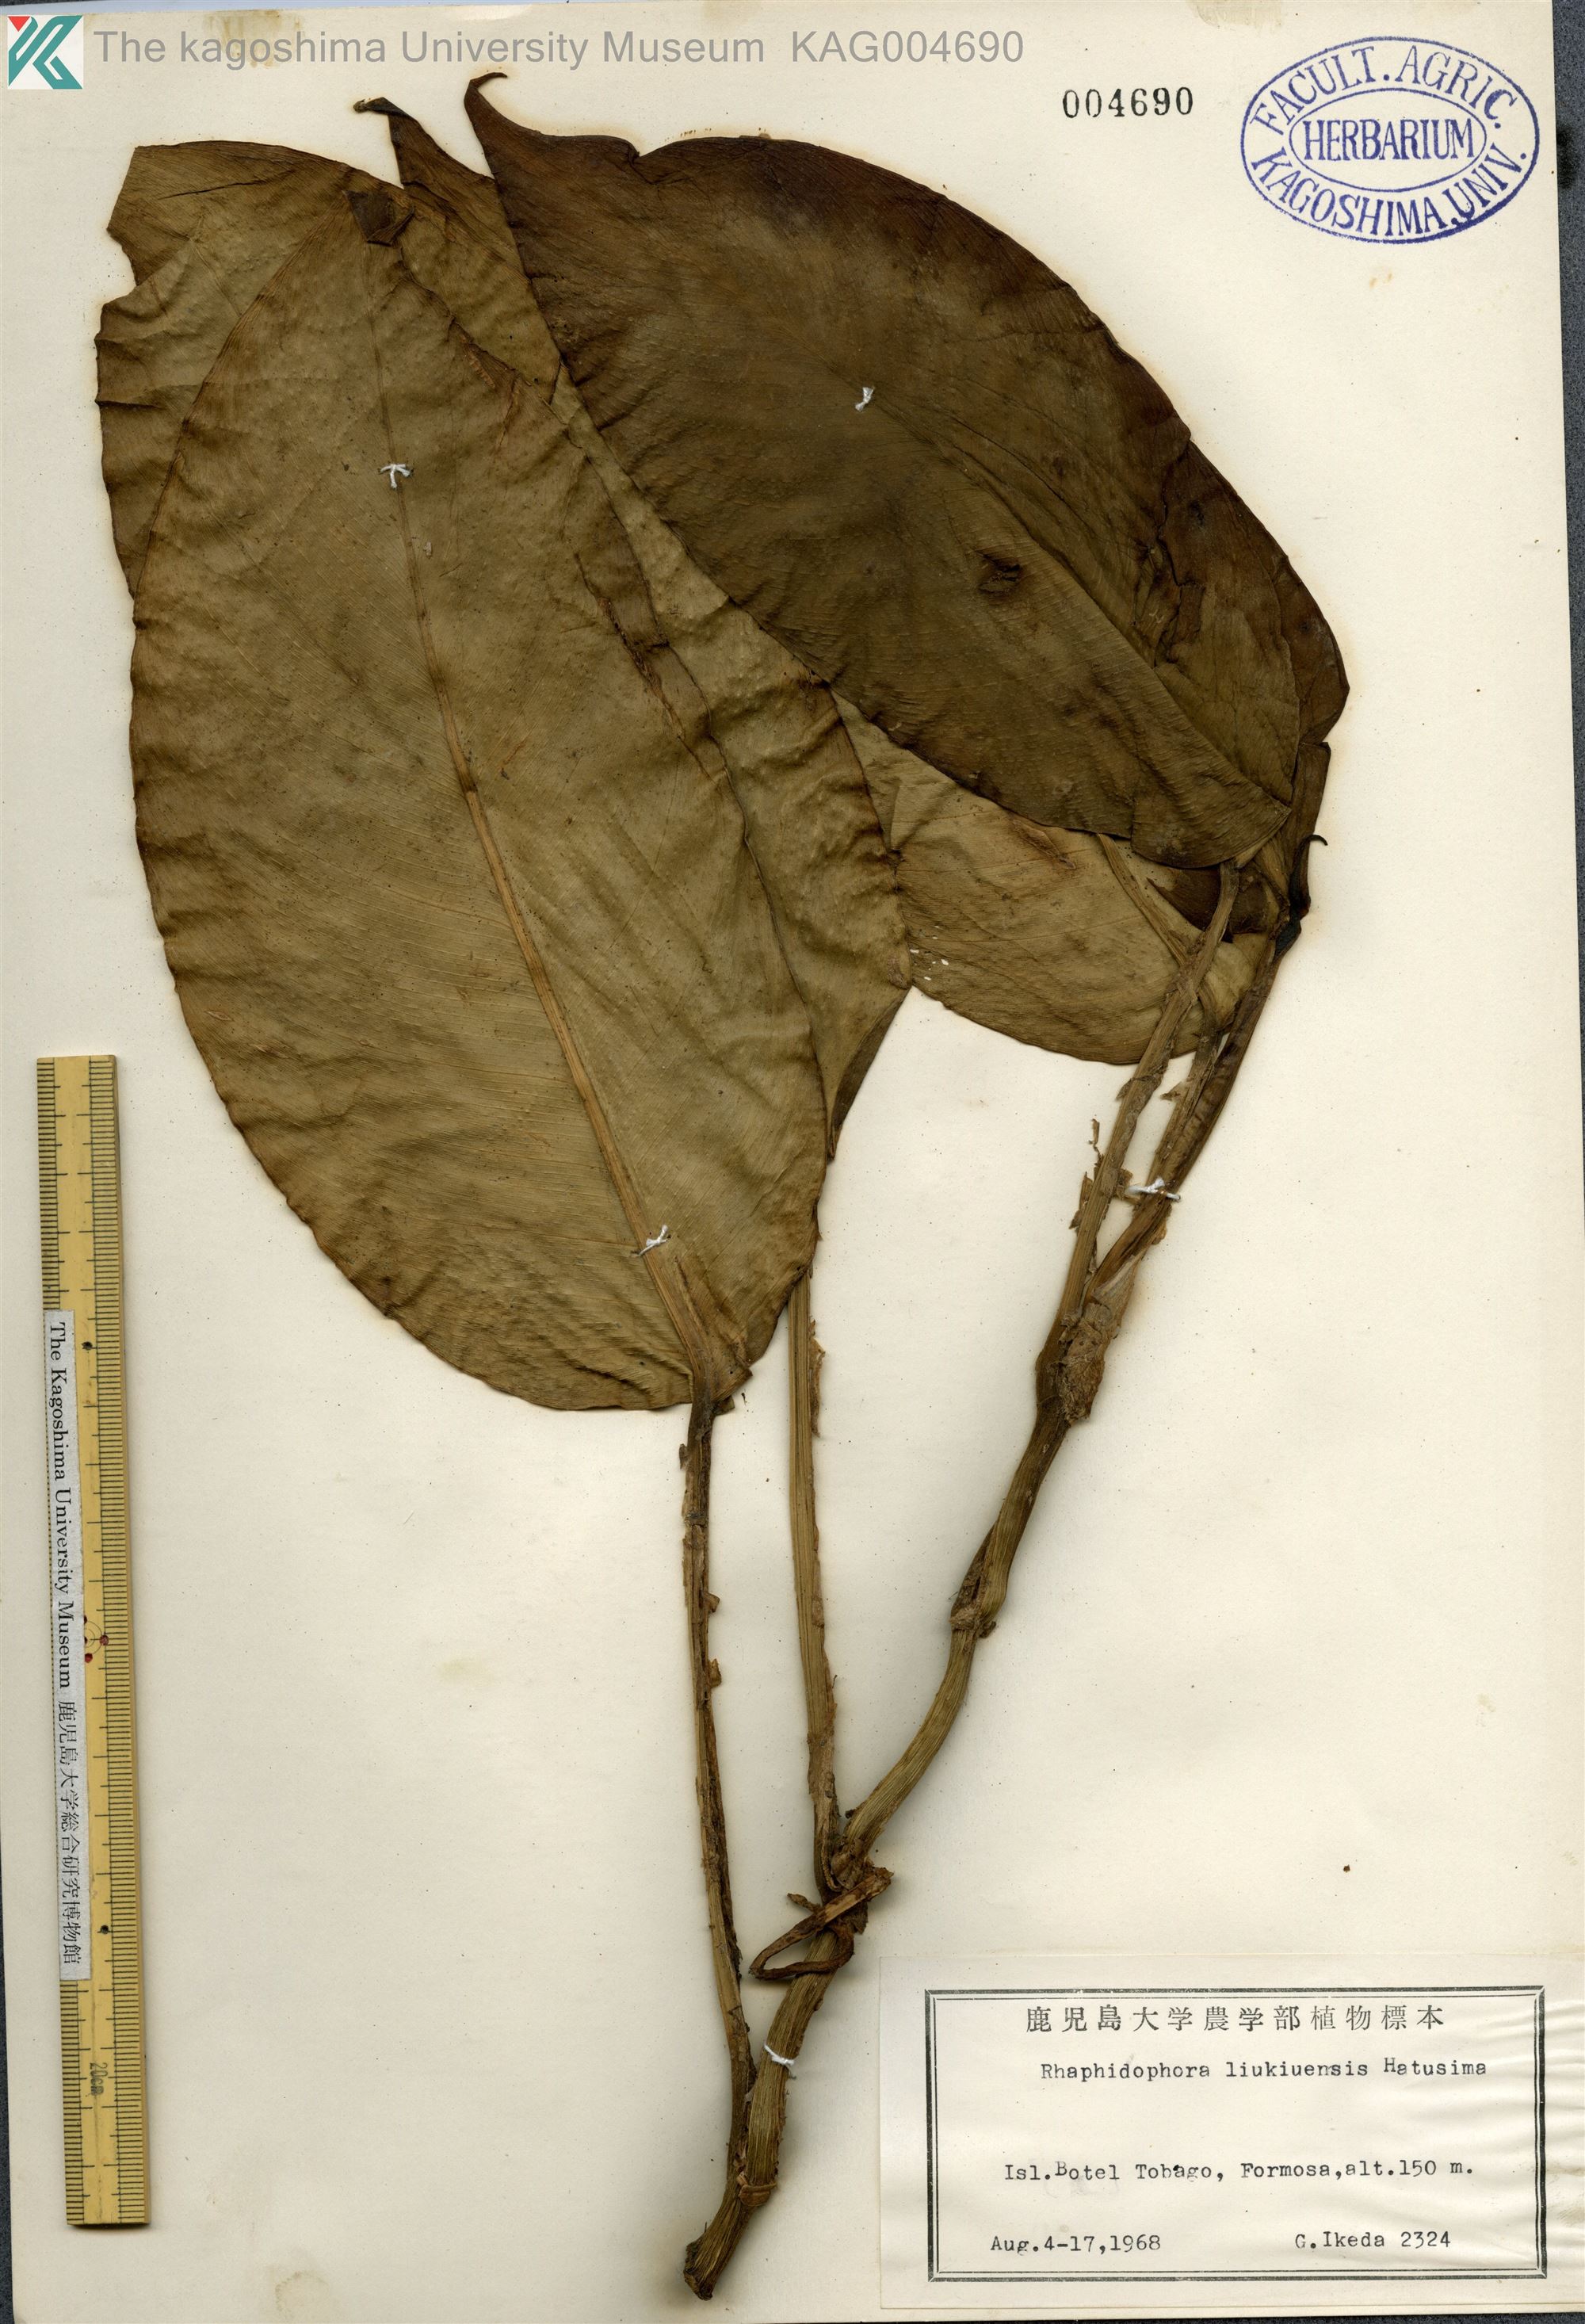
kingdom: Plantae
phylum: Tracheophyta
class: Liliopsida
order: Alismatales
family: Araceae
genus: Rhaphidophora
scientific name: Rhaphidophora liukiuensis
